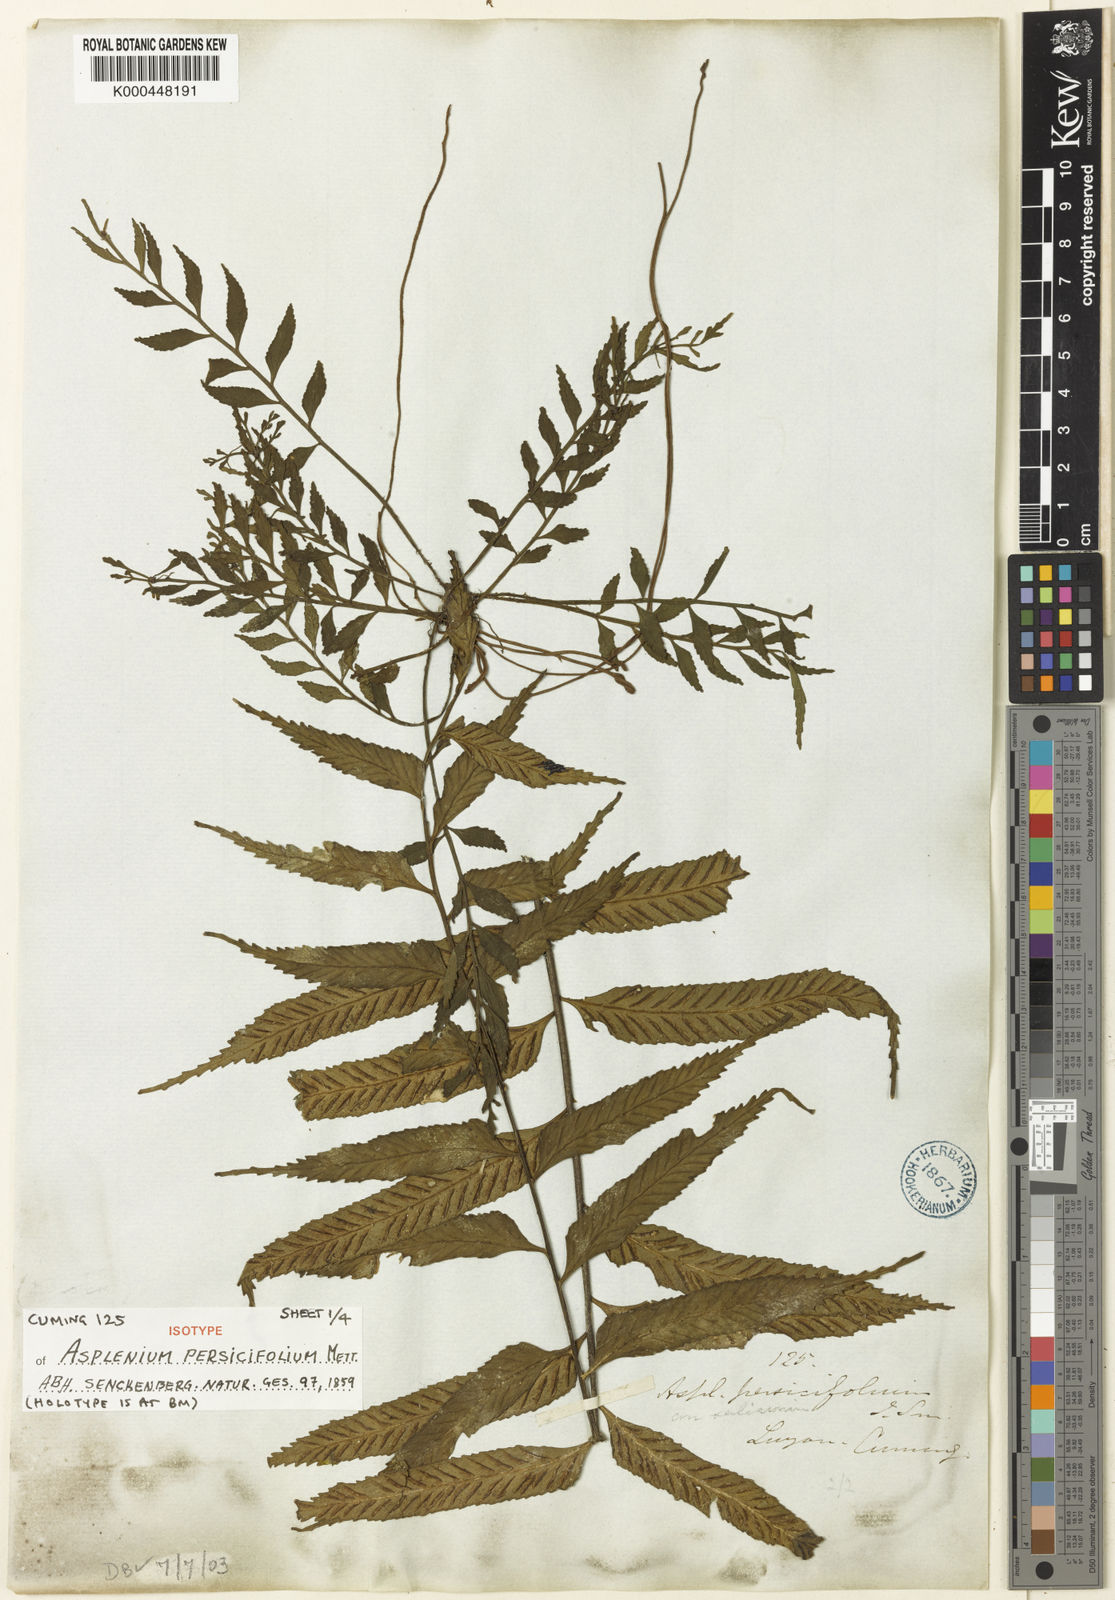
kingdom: Plantae
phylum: Tracheophyta
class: Polypodiopsida
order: Polypodiales
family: Aspleniaceae
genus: Asplenium
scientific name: Asplenium
